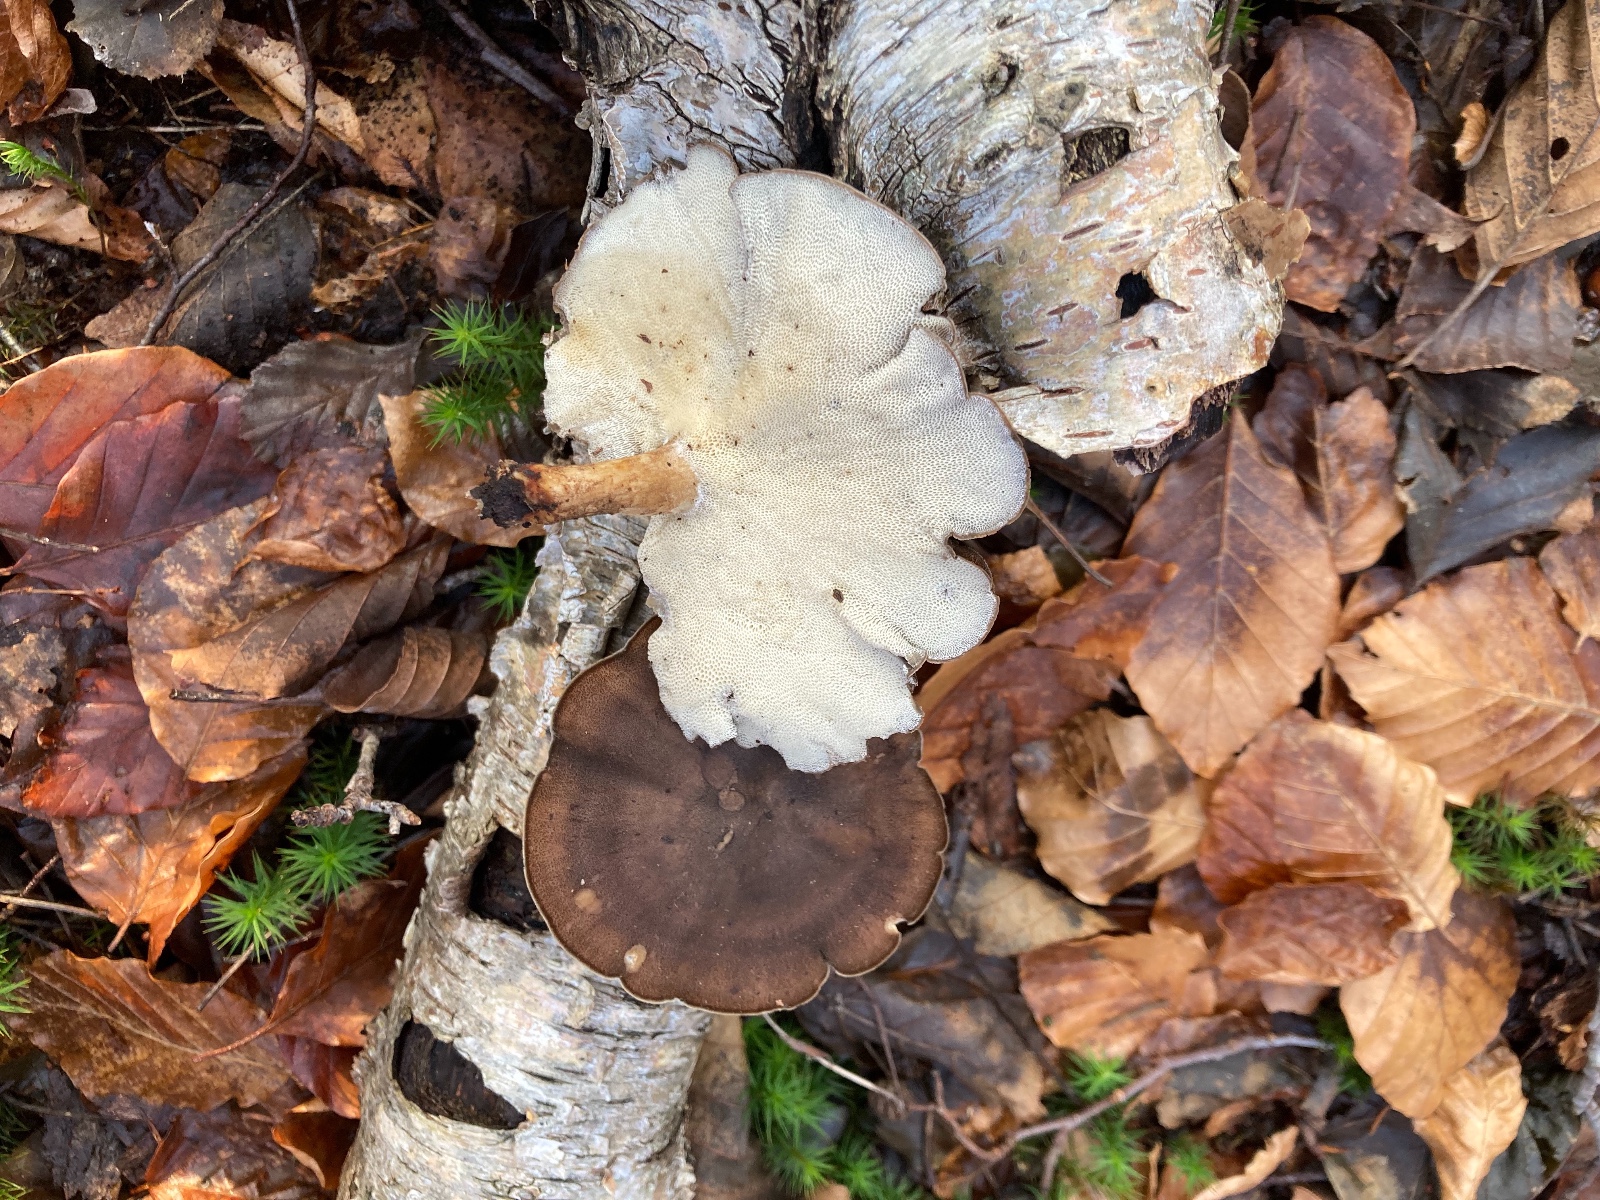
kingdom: Fungi
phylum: Basidiomycota
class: Agaricomycetes
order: Polyporales
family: Polyporaceae
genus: Lentinus
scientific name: Lentinus brumalis
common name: vinter-stilkporesvamp
